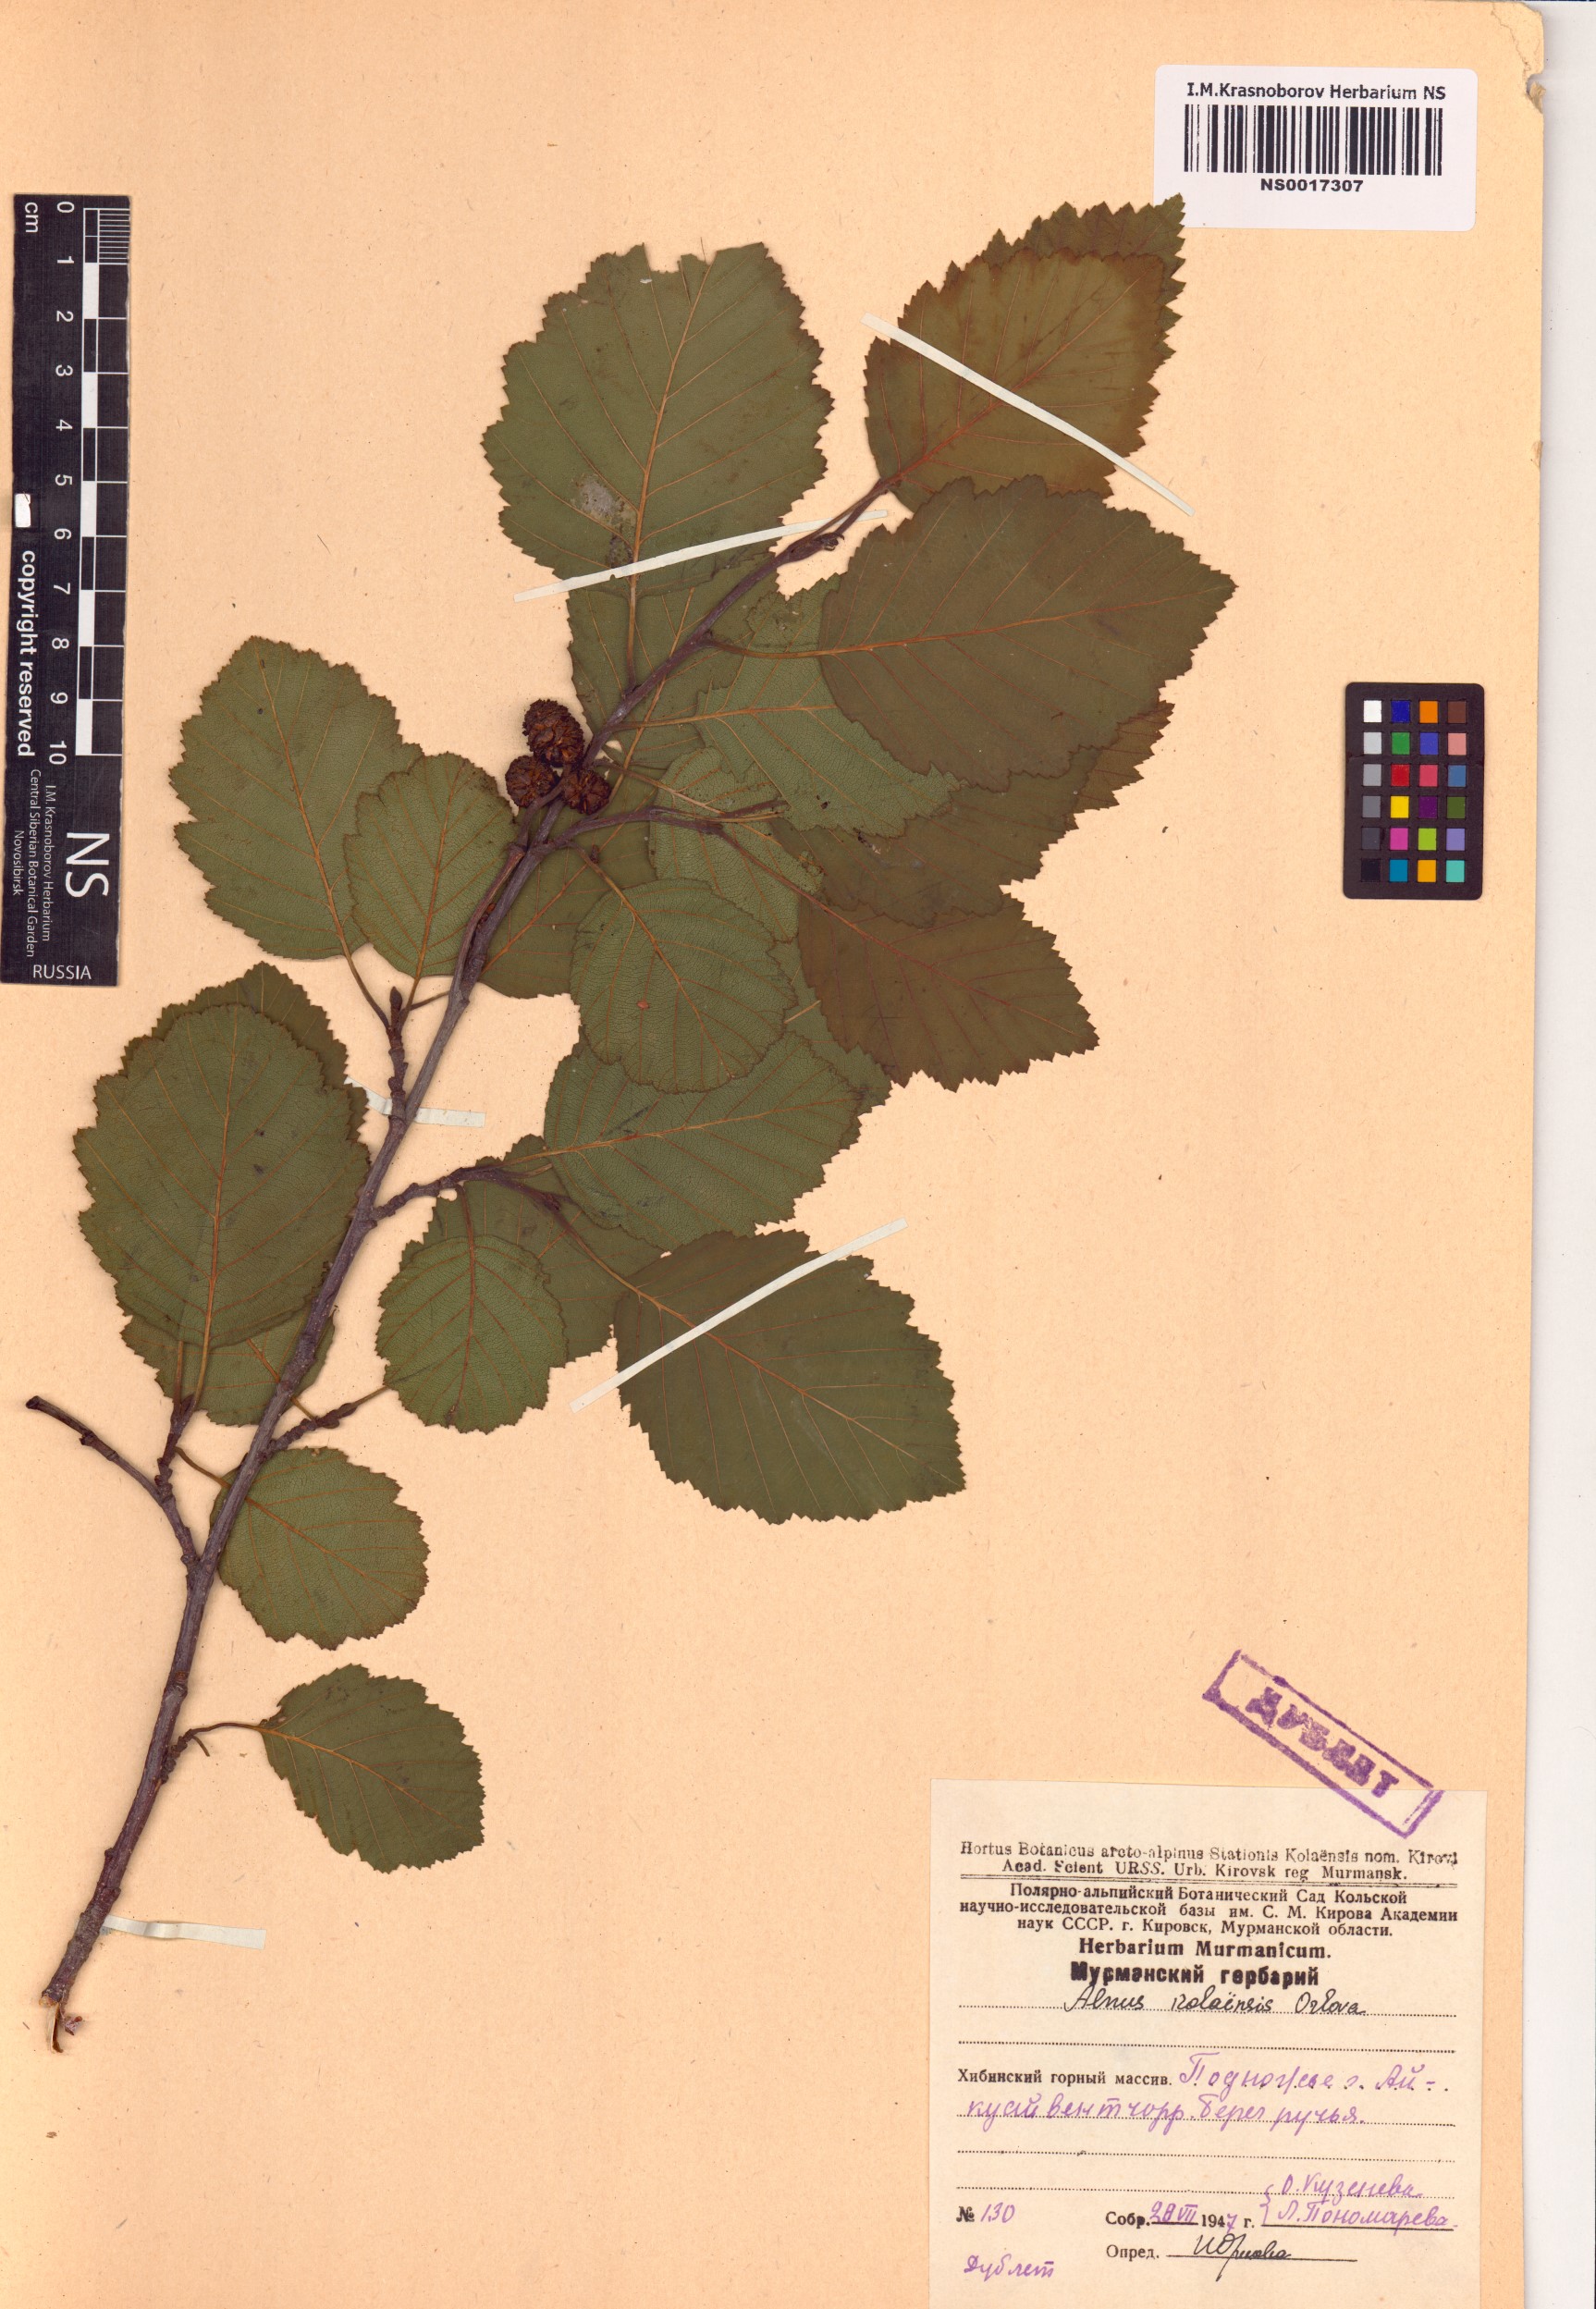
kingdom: Plantae
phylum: Tracheophyta
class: Magnoliopsida
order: Fagales
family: Betulaceae
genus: Alnus
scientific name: Alnus incana
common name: Grey alder
